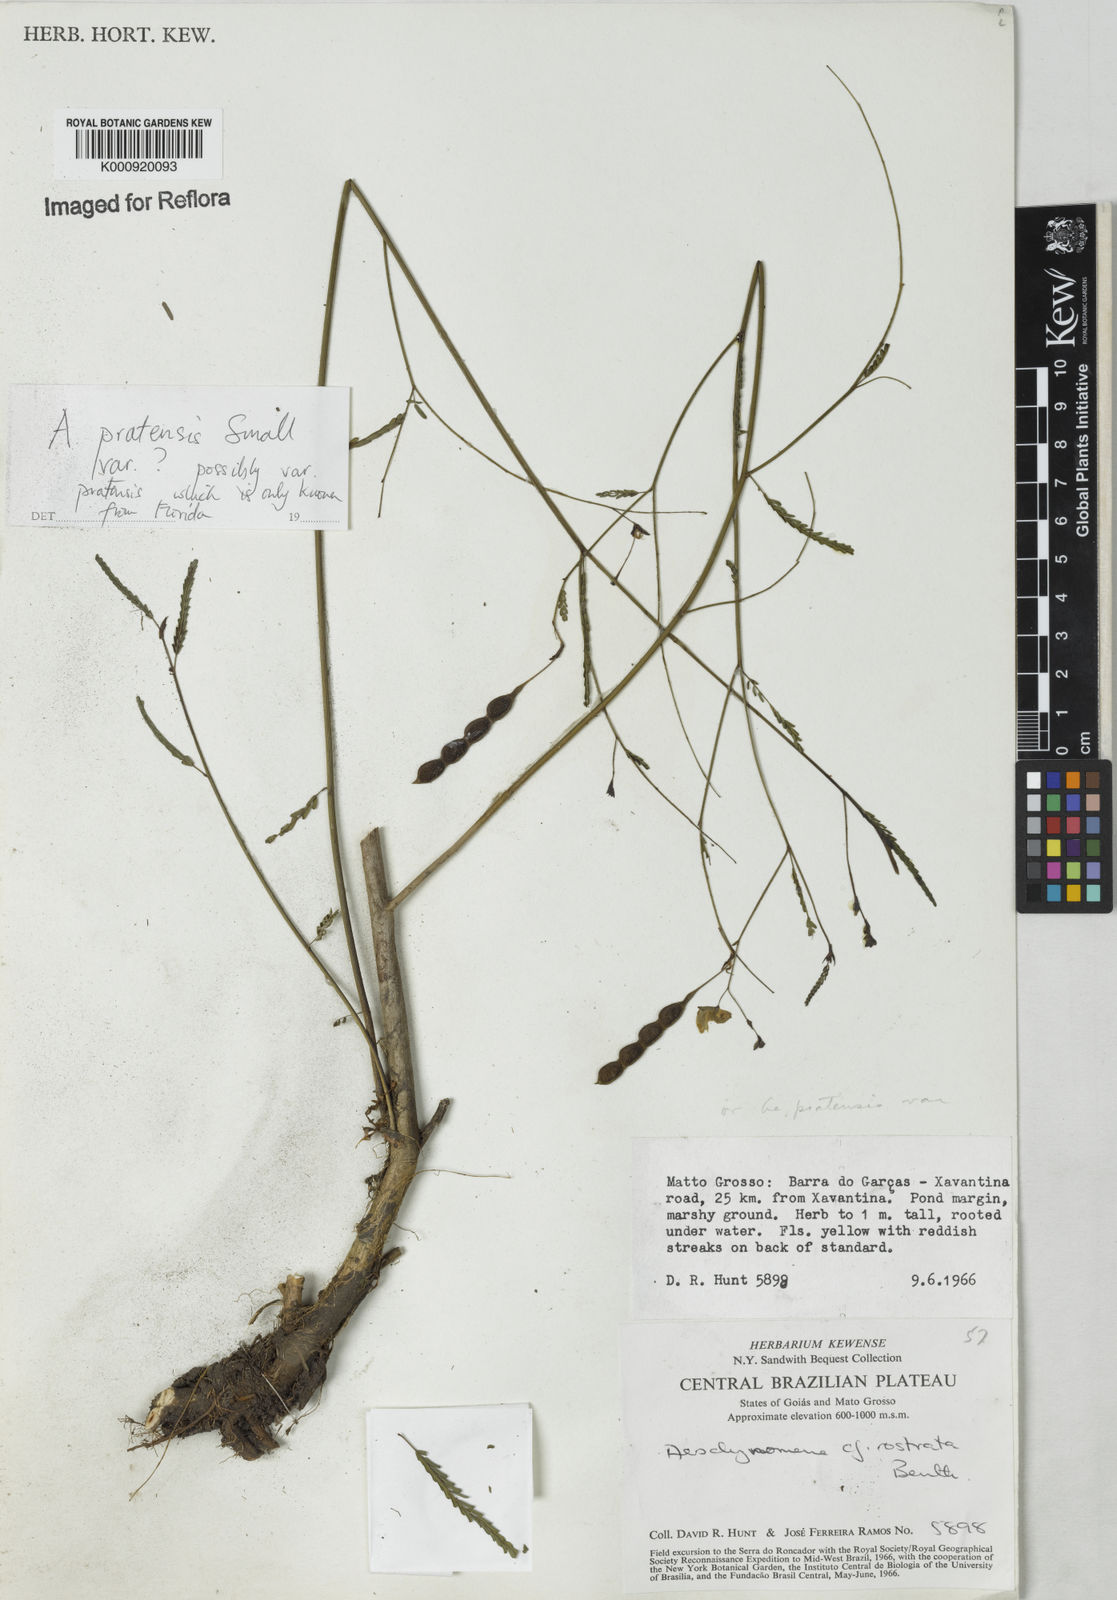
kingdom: Plantae
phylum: Tracheophyta
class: Magnoliopsida
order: Fabales
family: Fabaceae
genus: Aeschynomene
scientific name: Aeschynomene pratensis
